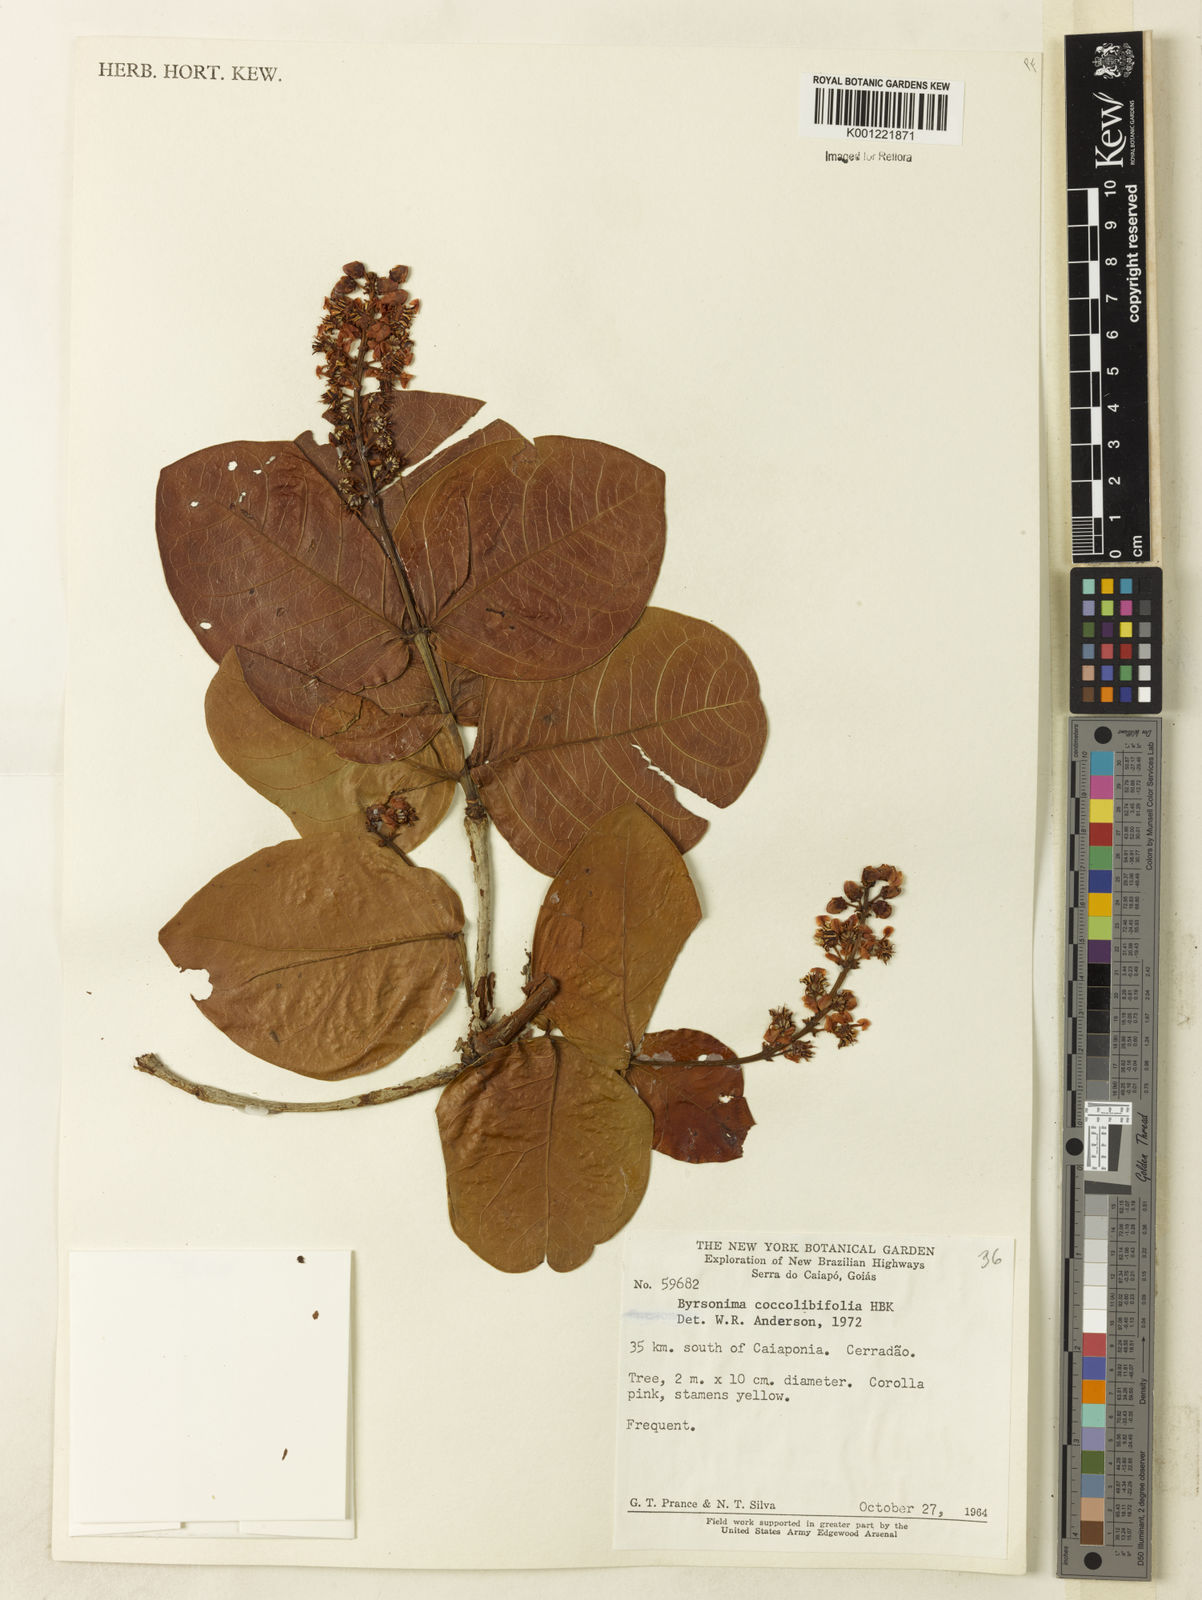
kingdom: Plantae
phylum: Tracheophyta
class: Magnoliopsida
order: Malpighiales
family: Malpighiaceae
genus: Byrsonima
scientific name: Byrsonima coccolobifolia
